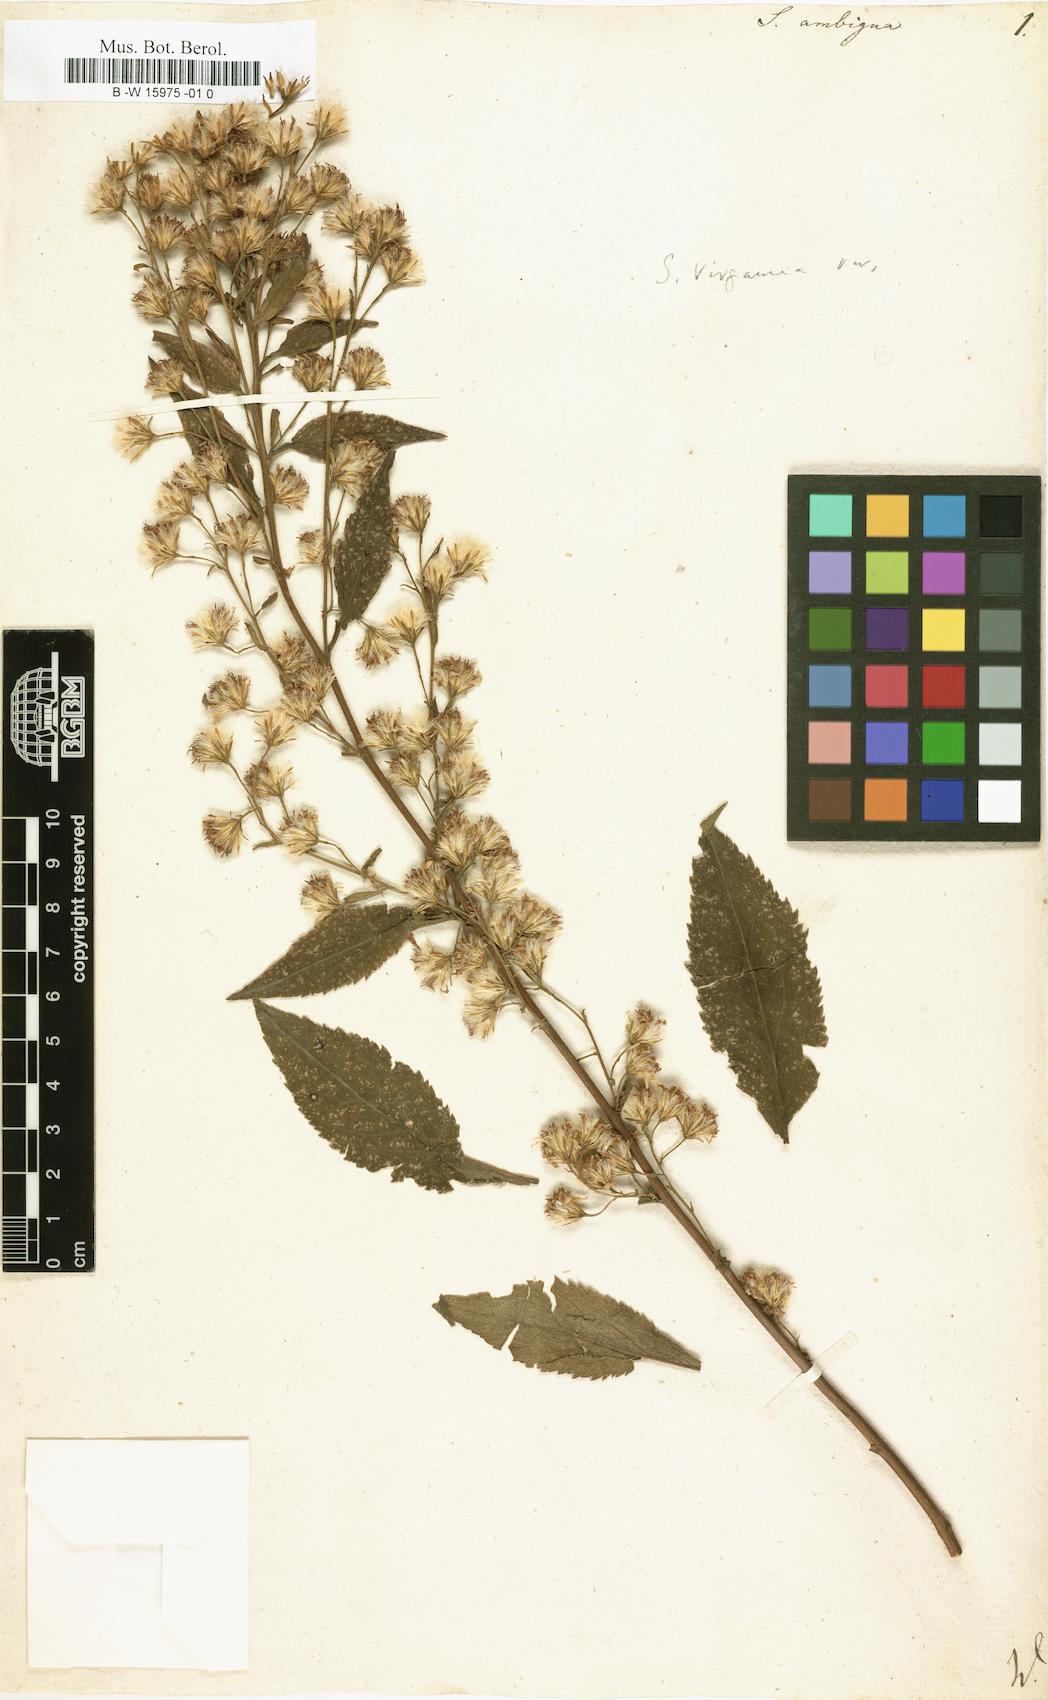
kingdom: Plantae
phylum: Tracheophyta
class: Magnoliopsida
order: Asterales
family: Asteraceae
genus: Solidago
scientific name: Solidago virgaurea
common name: Goldenrod
